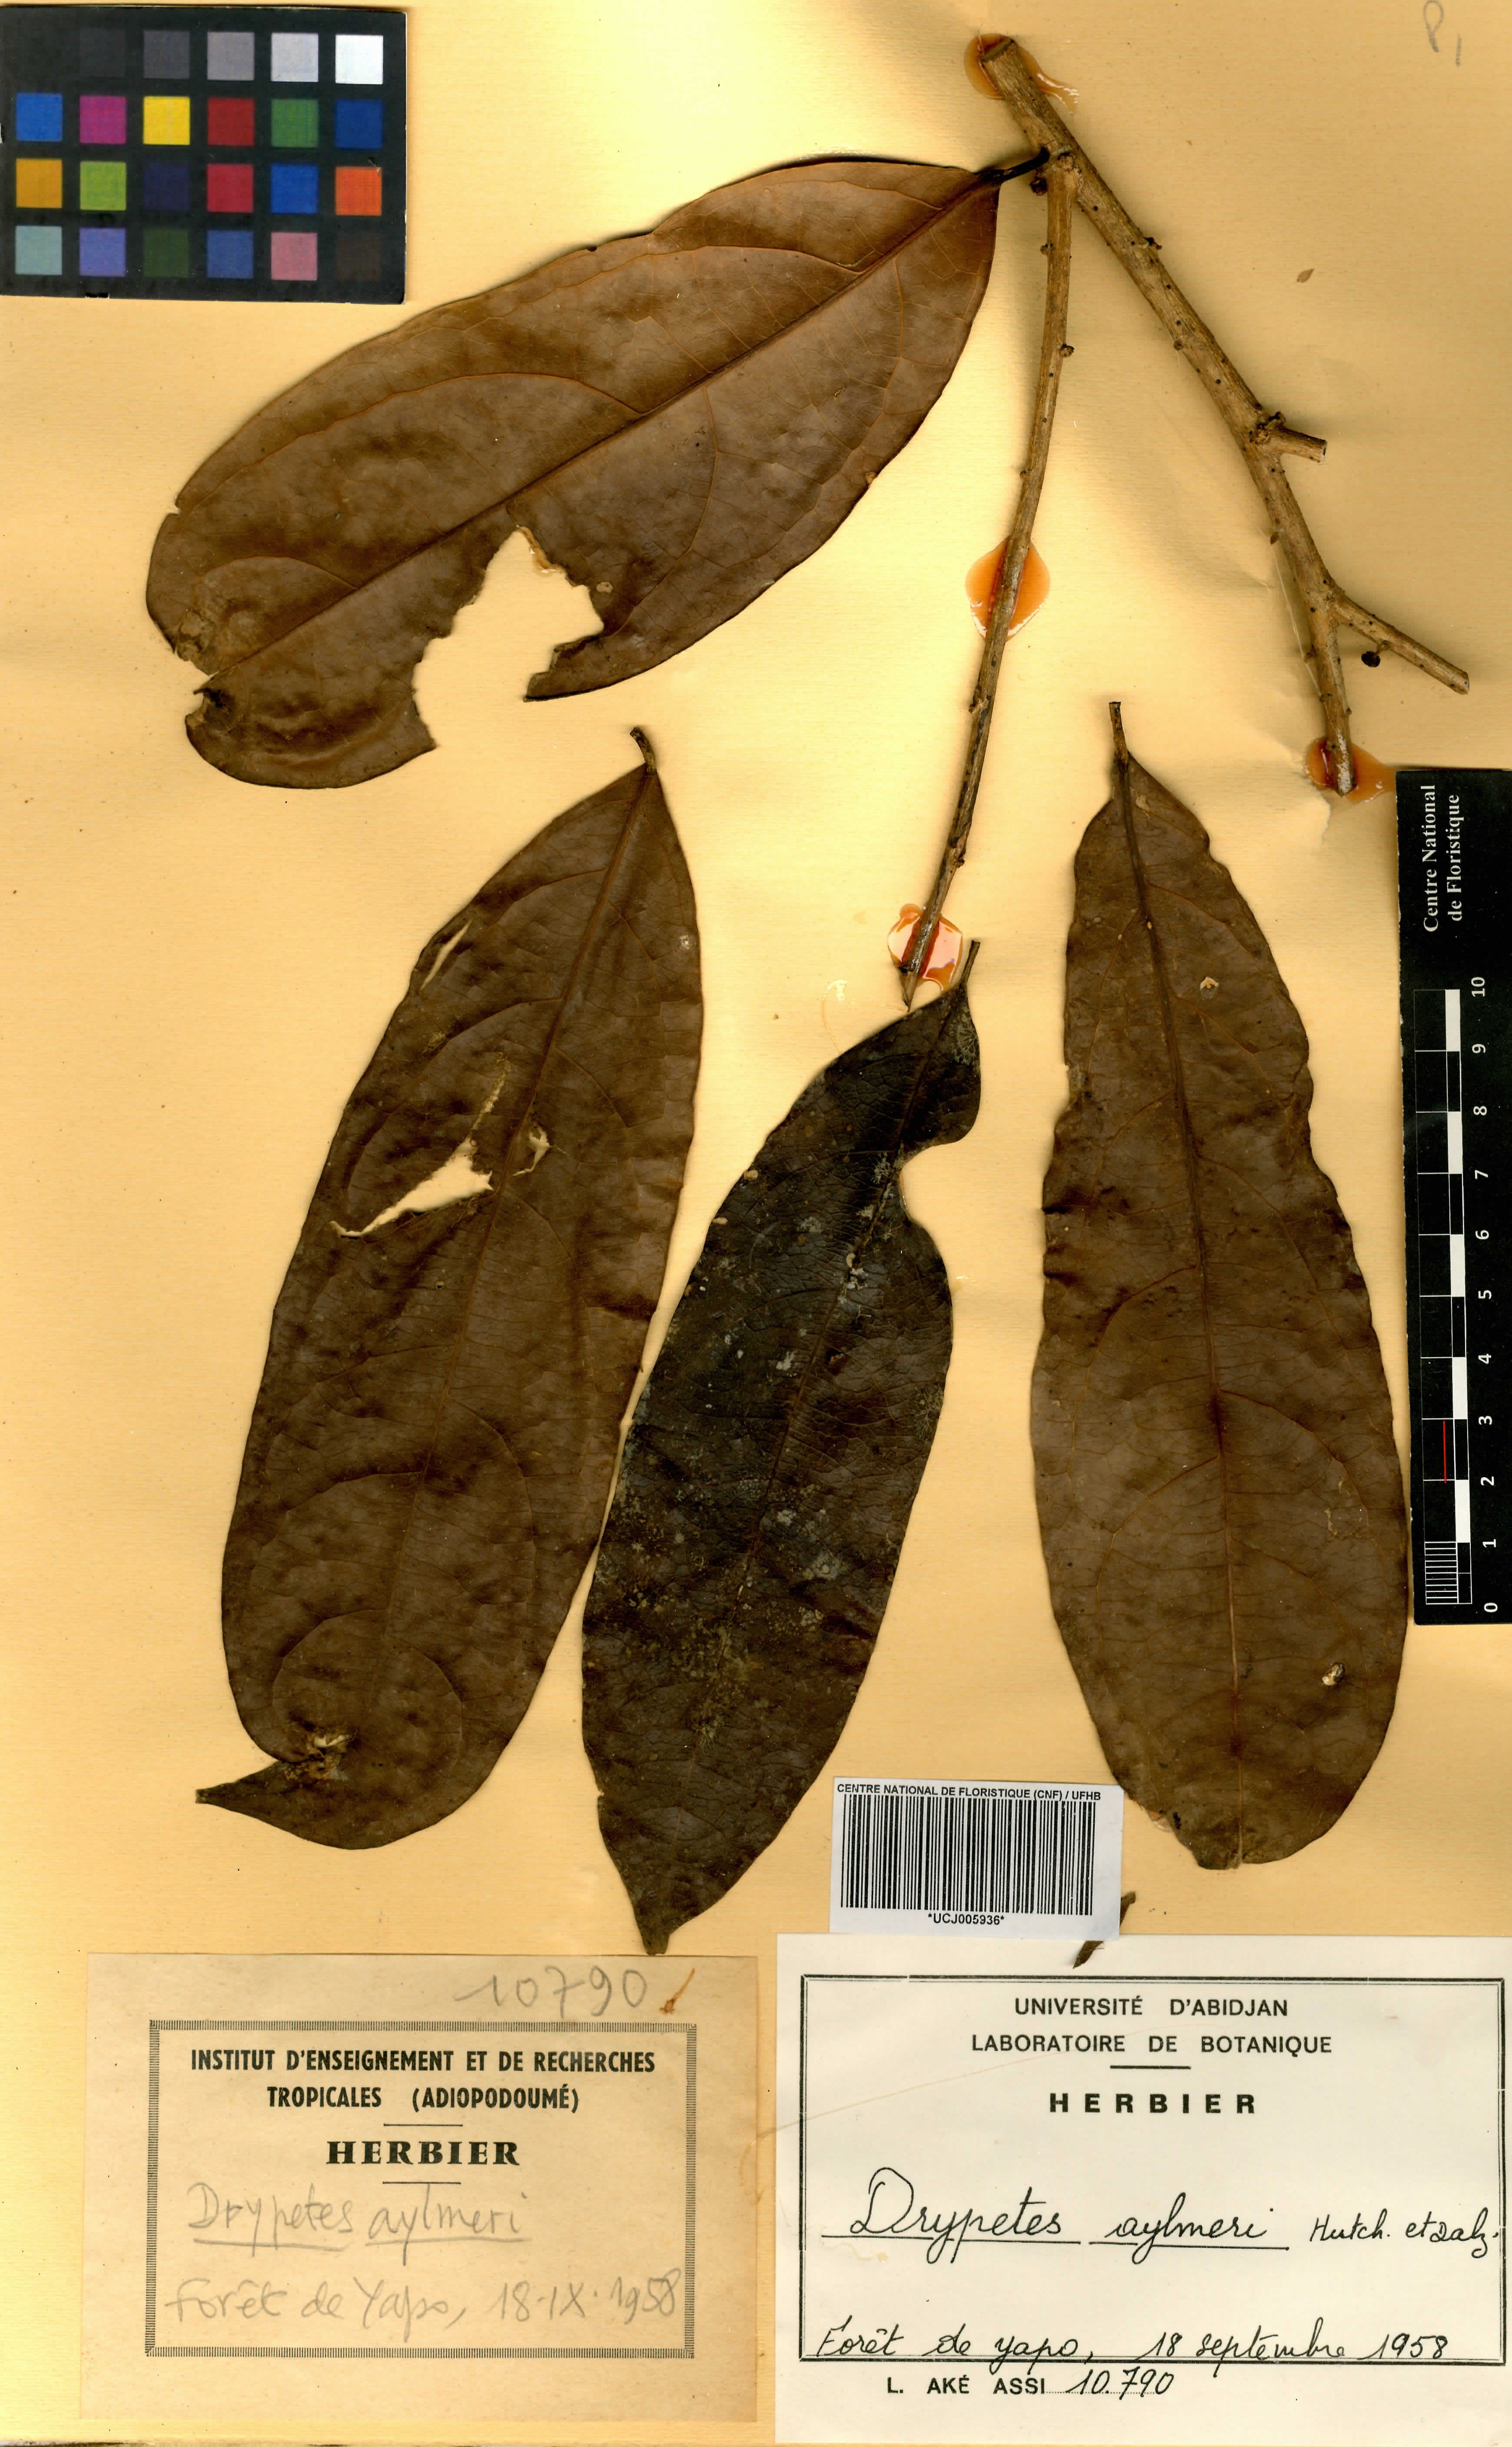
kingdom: Plantae
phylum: Tracheophyta
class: Magnoliopsida
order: Malpighiales
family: Putranjivaceae
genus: Drypetes
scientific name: Drypetes aylmeri
